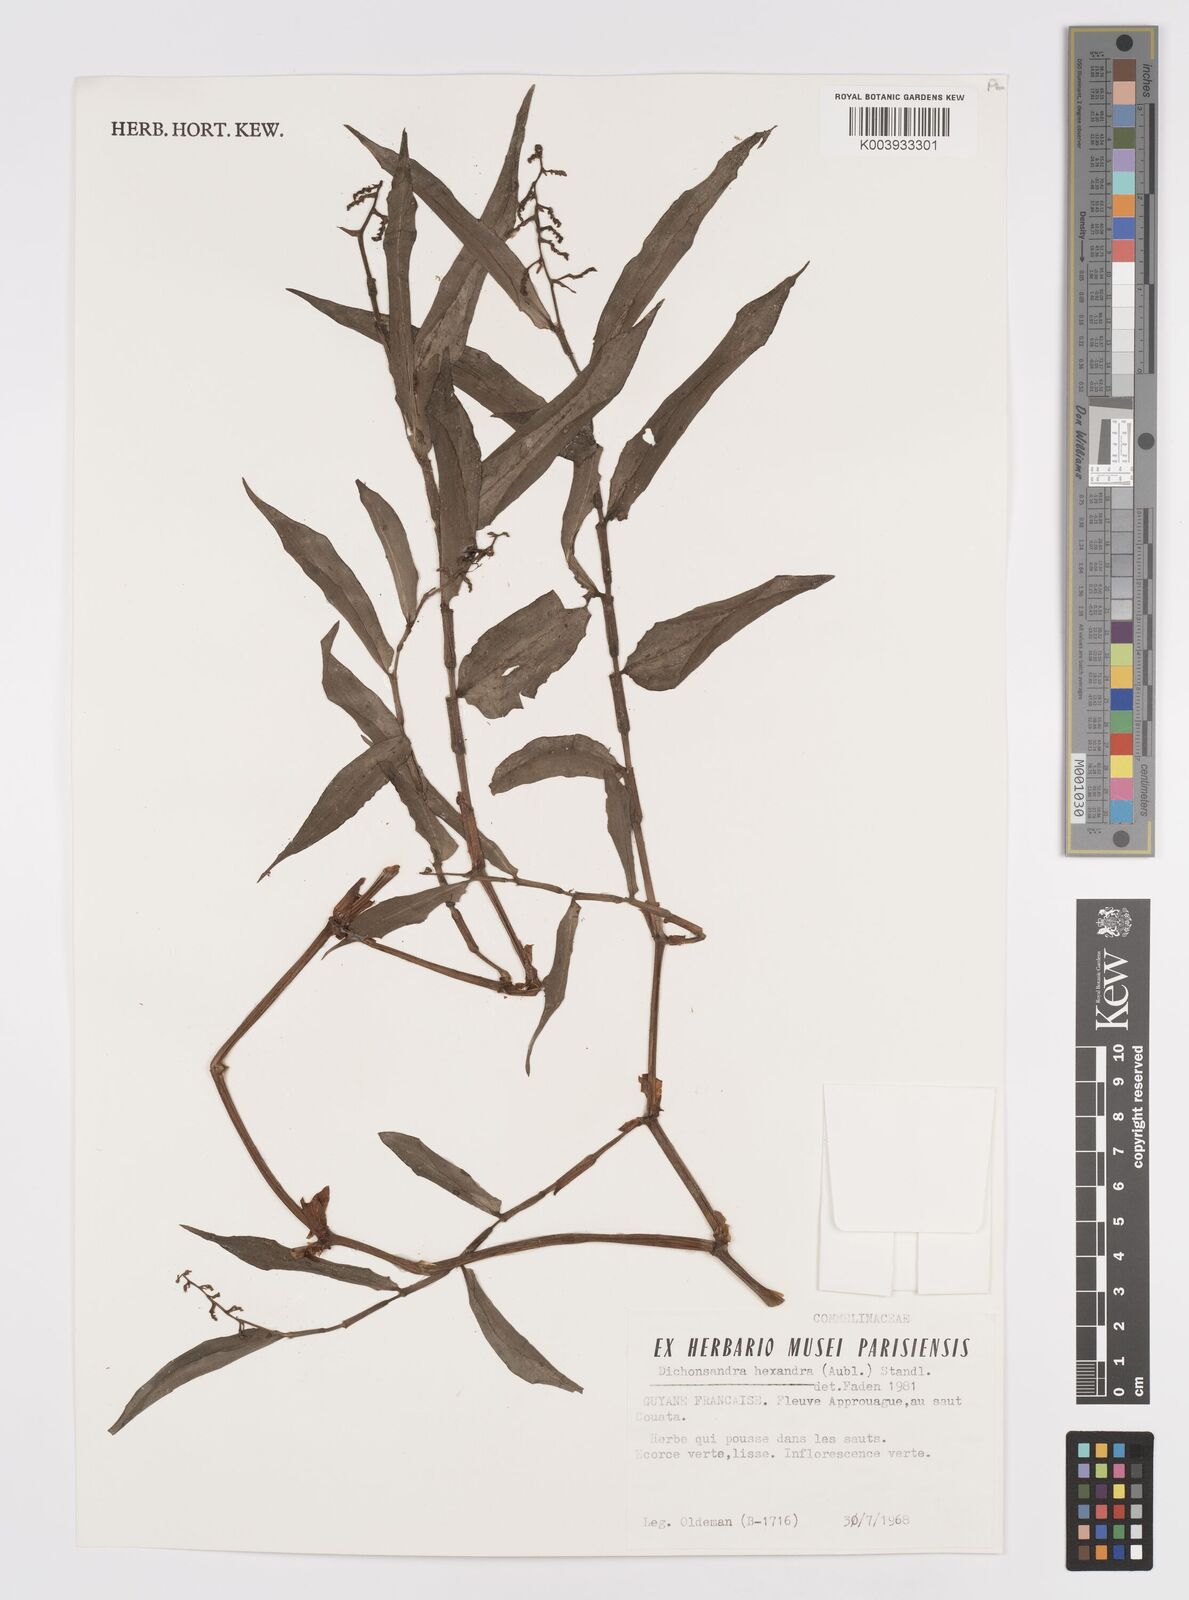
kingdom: Plantae
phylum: Tracheophyta
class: Liliopsida
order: Commelinales
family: Commelinaceae
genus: Dichorisandra
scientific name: Dichorisandra hexandra
